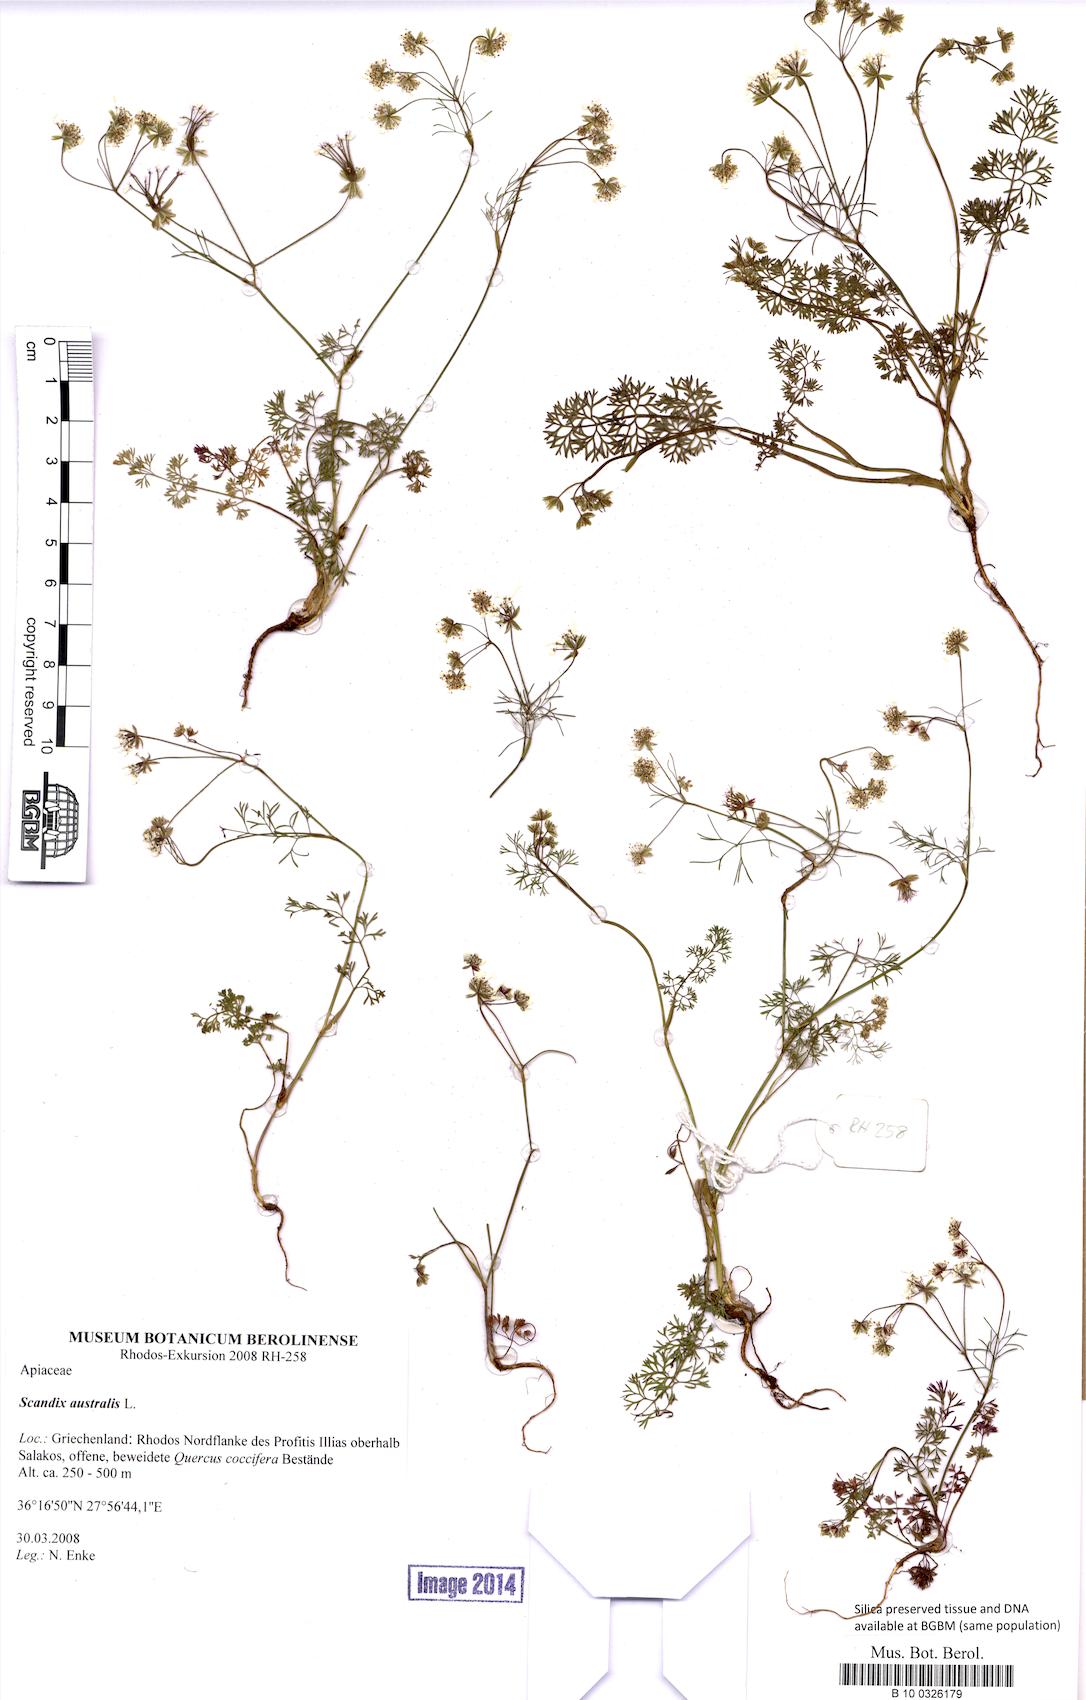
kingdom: Plantae
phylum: Tracheophyta
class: Magnoliopsida
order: Apiales
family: Apiaceae
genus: Scandix
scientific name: Scandix australis
